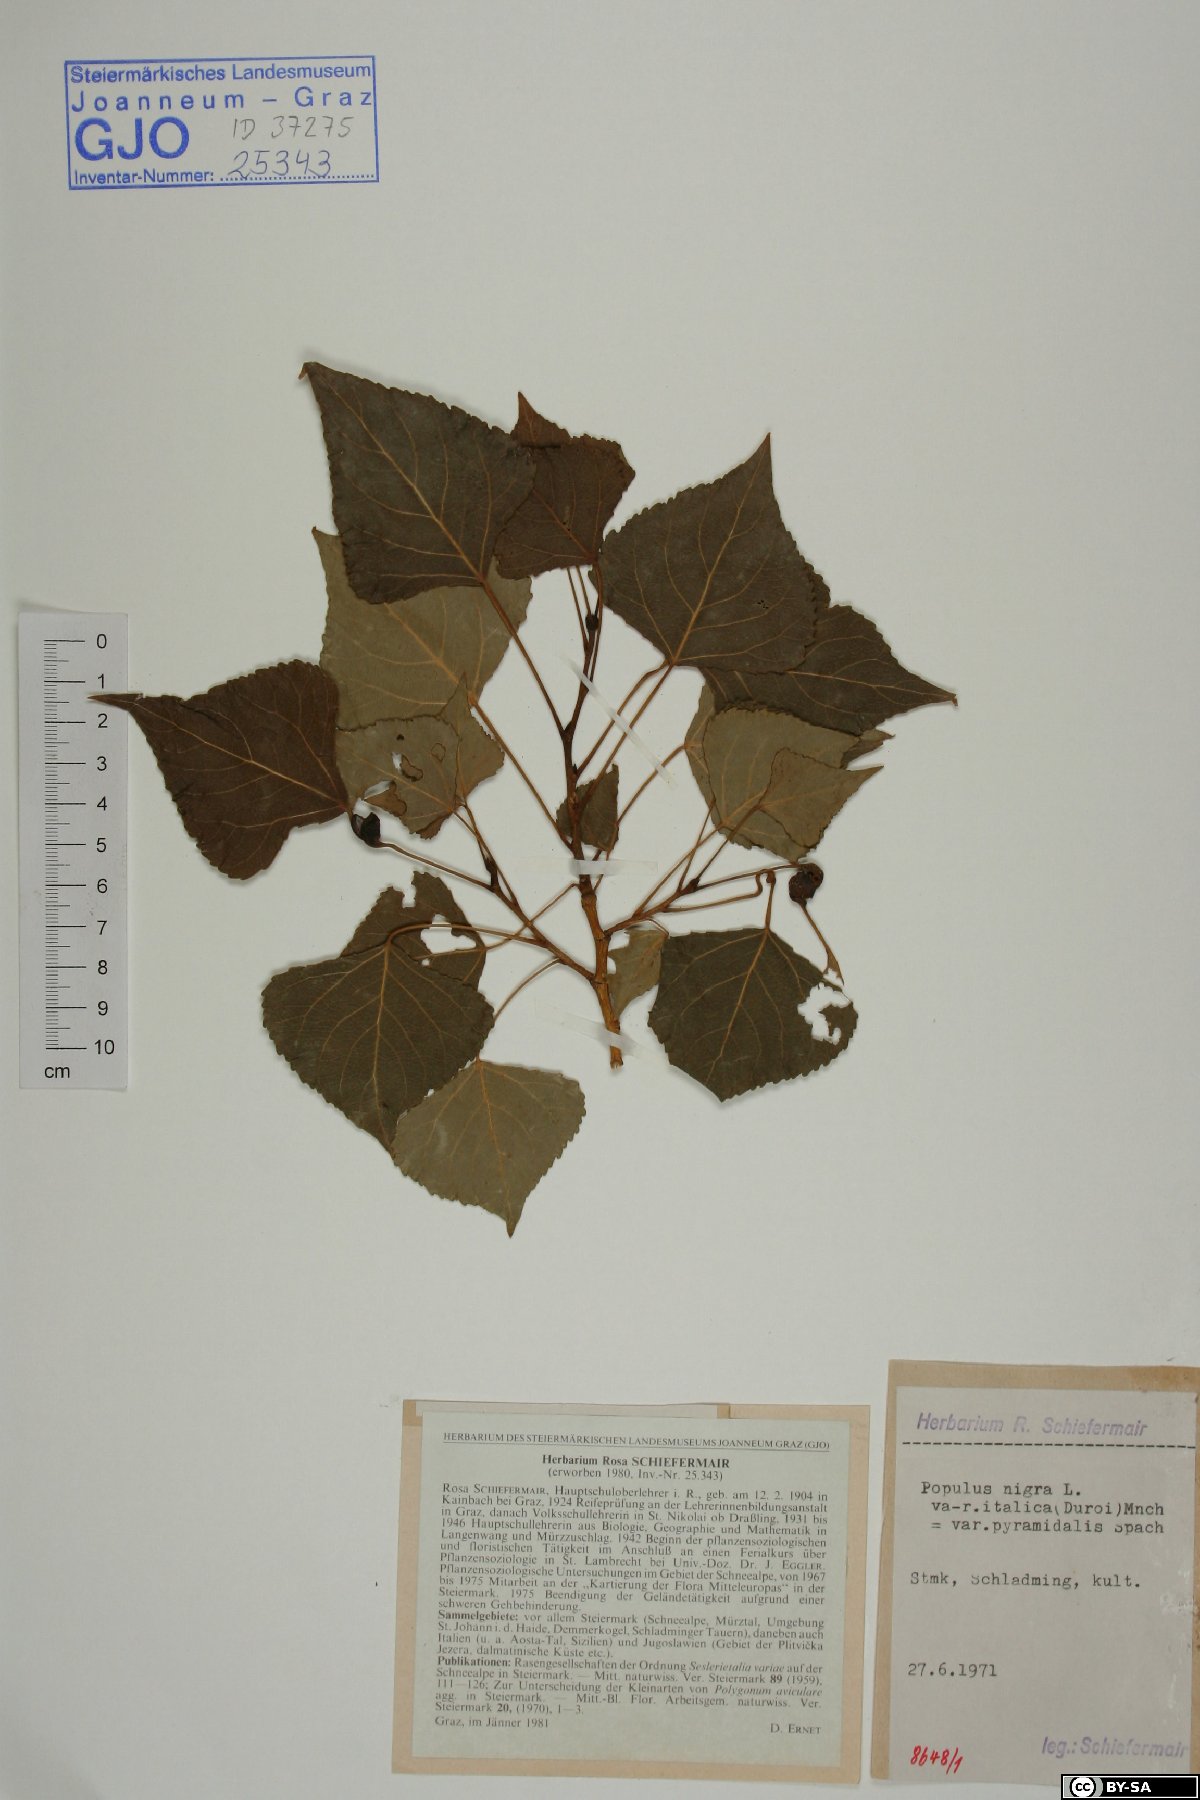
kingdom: Plantae
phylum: Tracheophyta
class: Magnoliopsida
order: Malpighiales
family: Salicaceae
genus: Populus
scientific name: Populus nigra
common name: Black poplar
